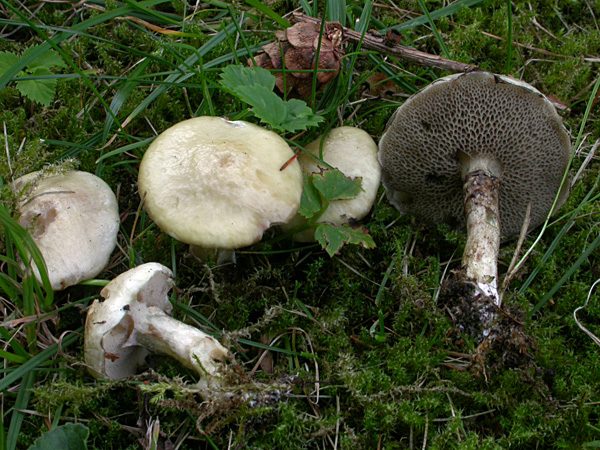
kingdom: Fungi
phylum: Basidiomycota
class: Agaricomycetes
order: Boletales
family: Suillaceae
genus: Suillus
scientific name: Suillus viscidus
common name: olivengrå slimrørhat
